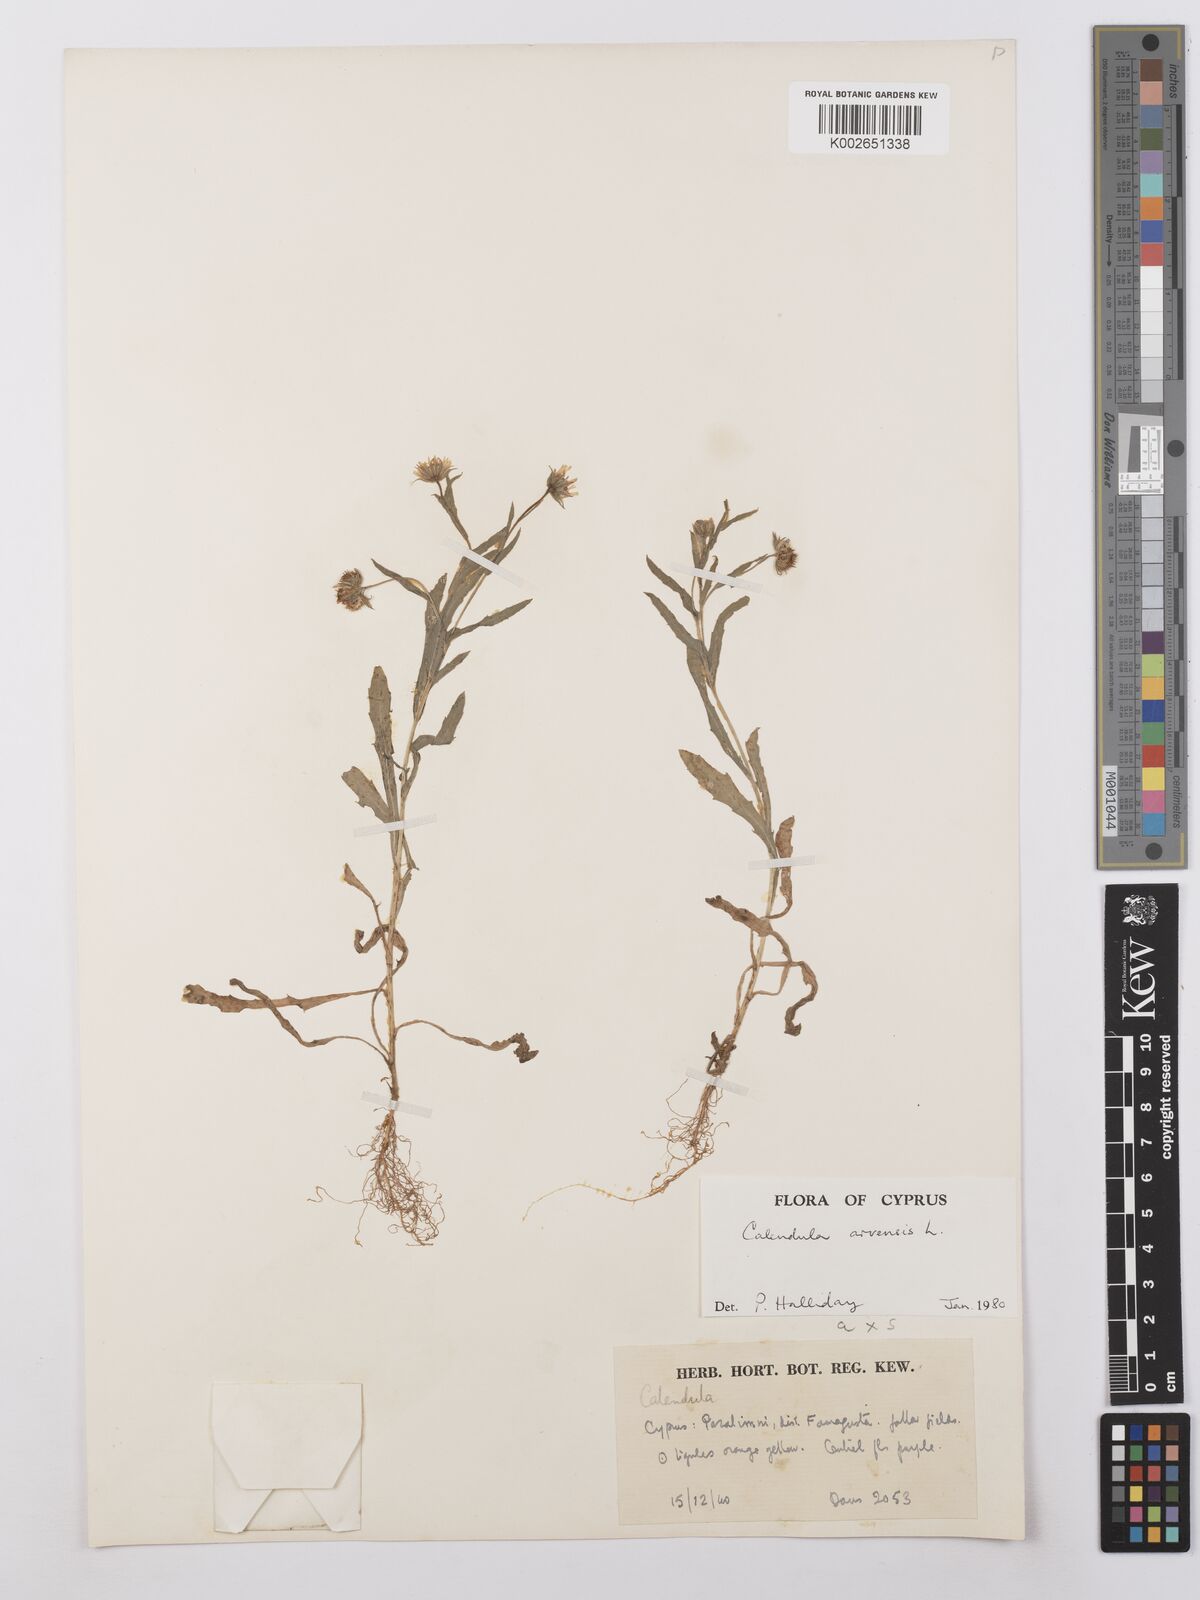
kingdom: Plantae
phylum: Tracheophyta
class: Magnoliopsida
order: Asterales
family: Asteraceae
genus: Calendula
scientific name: Calendula arvensis
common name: Field marigold
